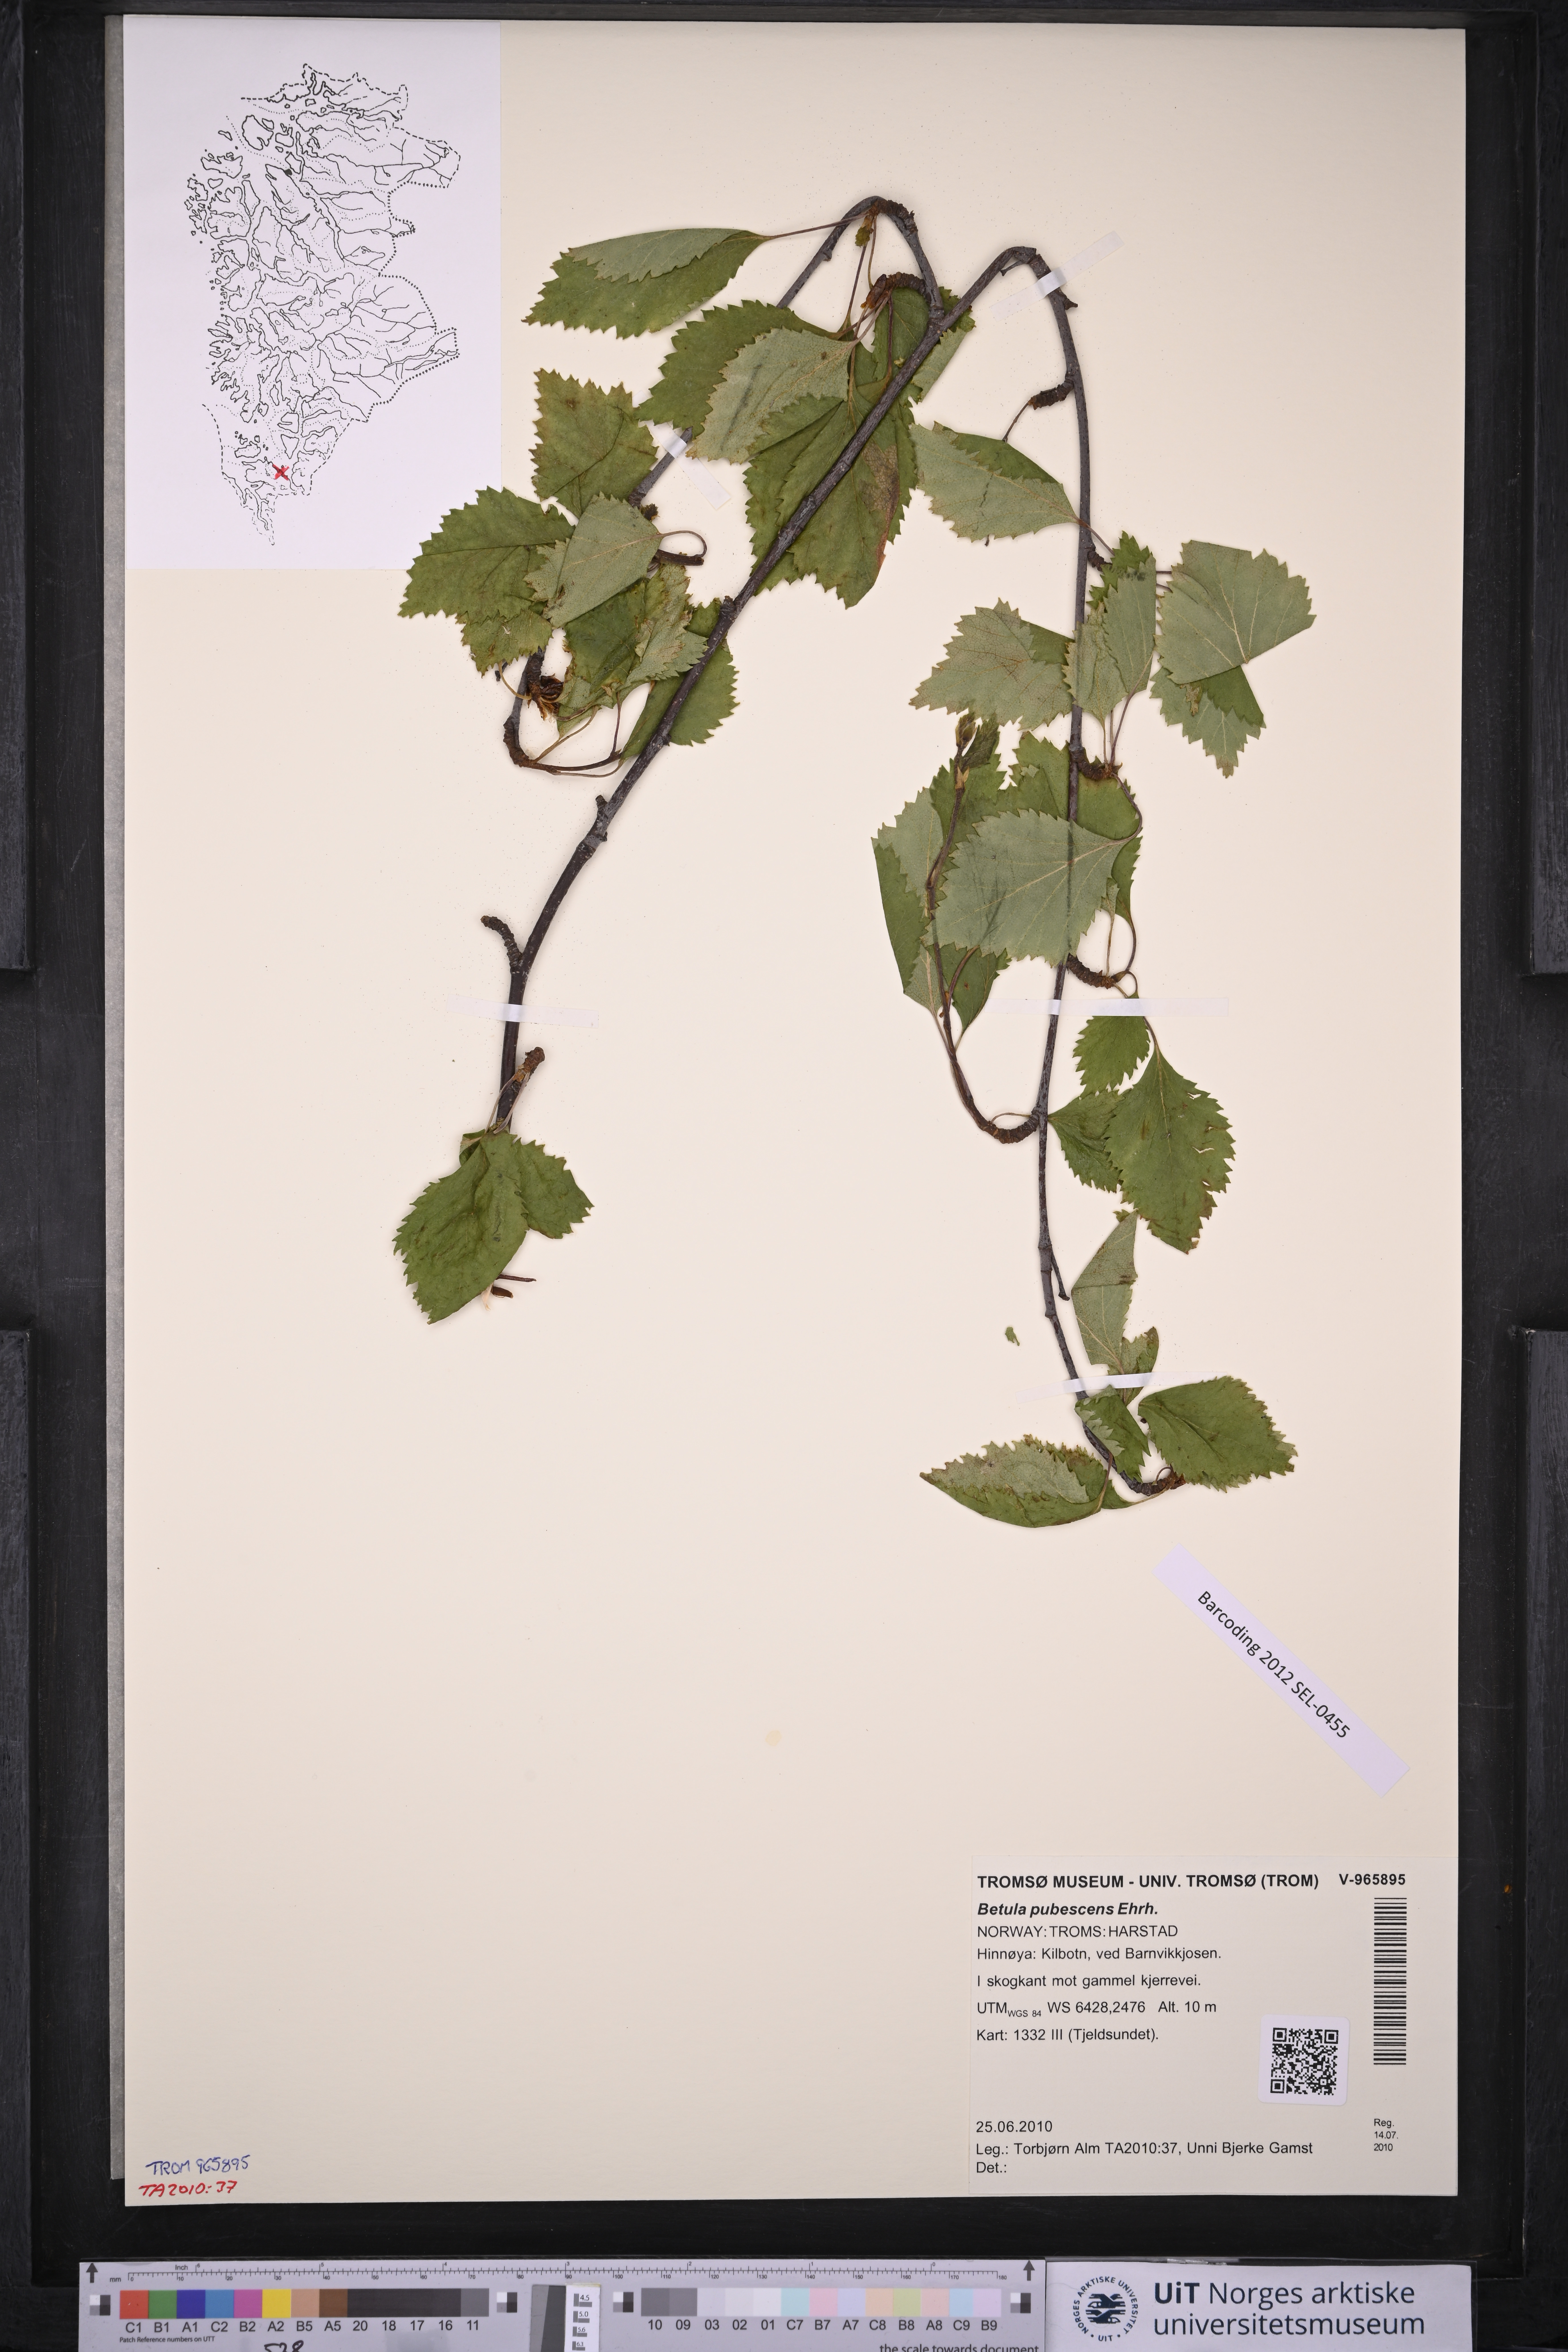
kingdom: Plantae
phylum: Tracheophyta
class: Magnoliopsida
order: Fagales
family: Betulaceae
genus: Betula
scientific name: Betula pubescens
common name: Downy birch
